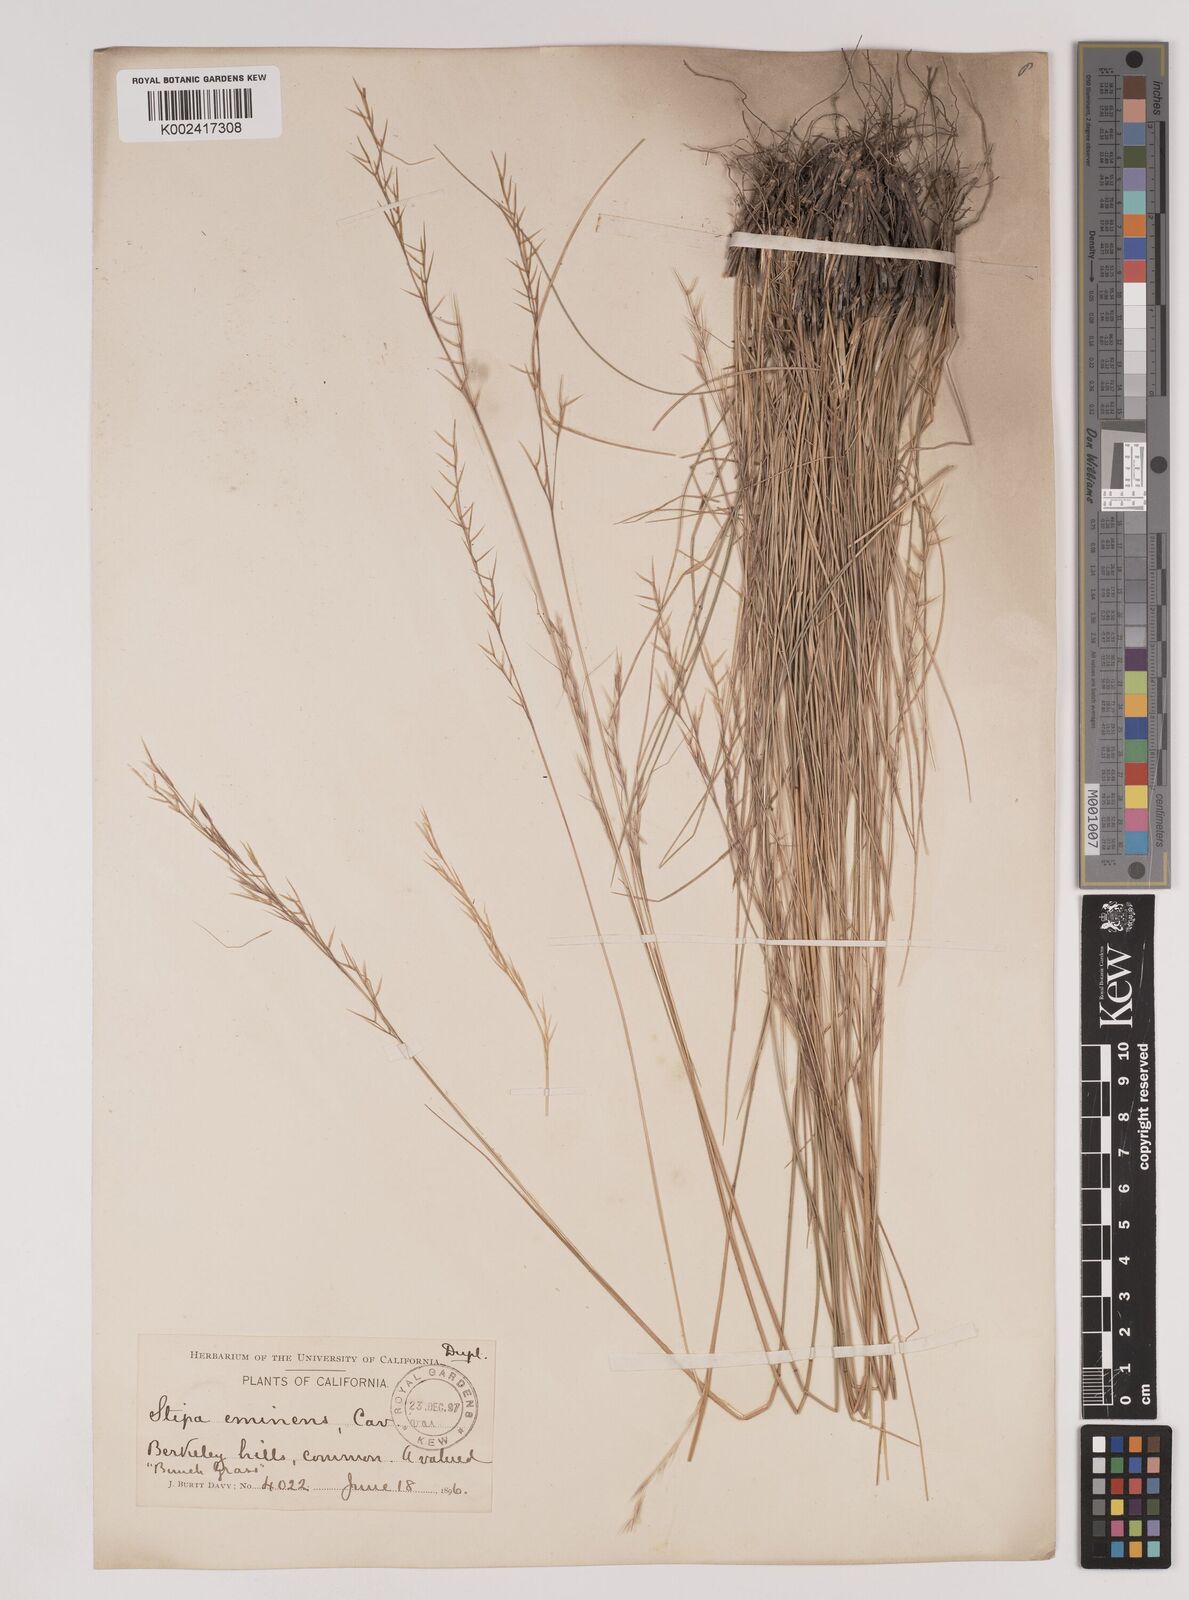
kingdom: Plantae
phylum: Tracheophyta
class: Liliopsida
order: Poales
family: Poaceae
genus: Nassella
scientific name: Nassella lepida
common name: Foothill needlegrass
